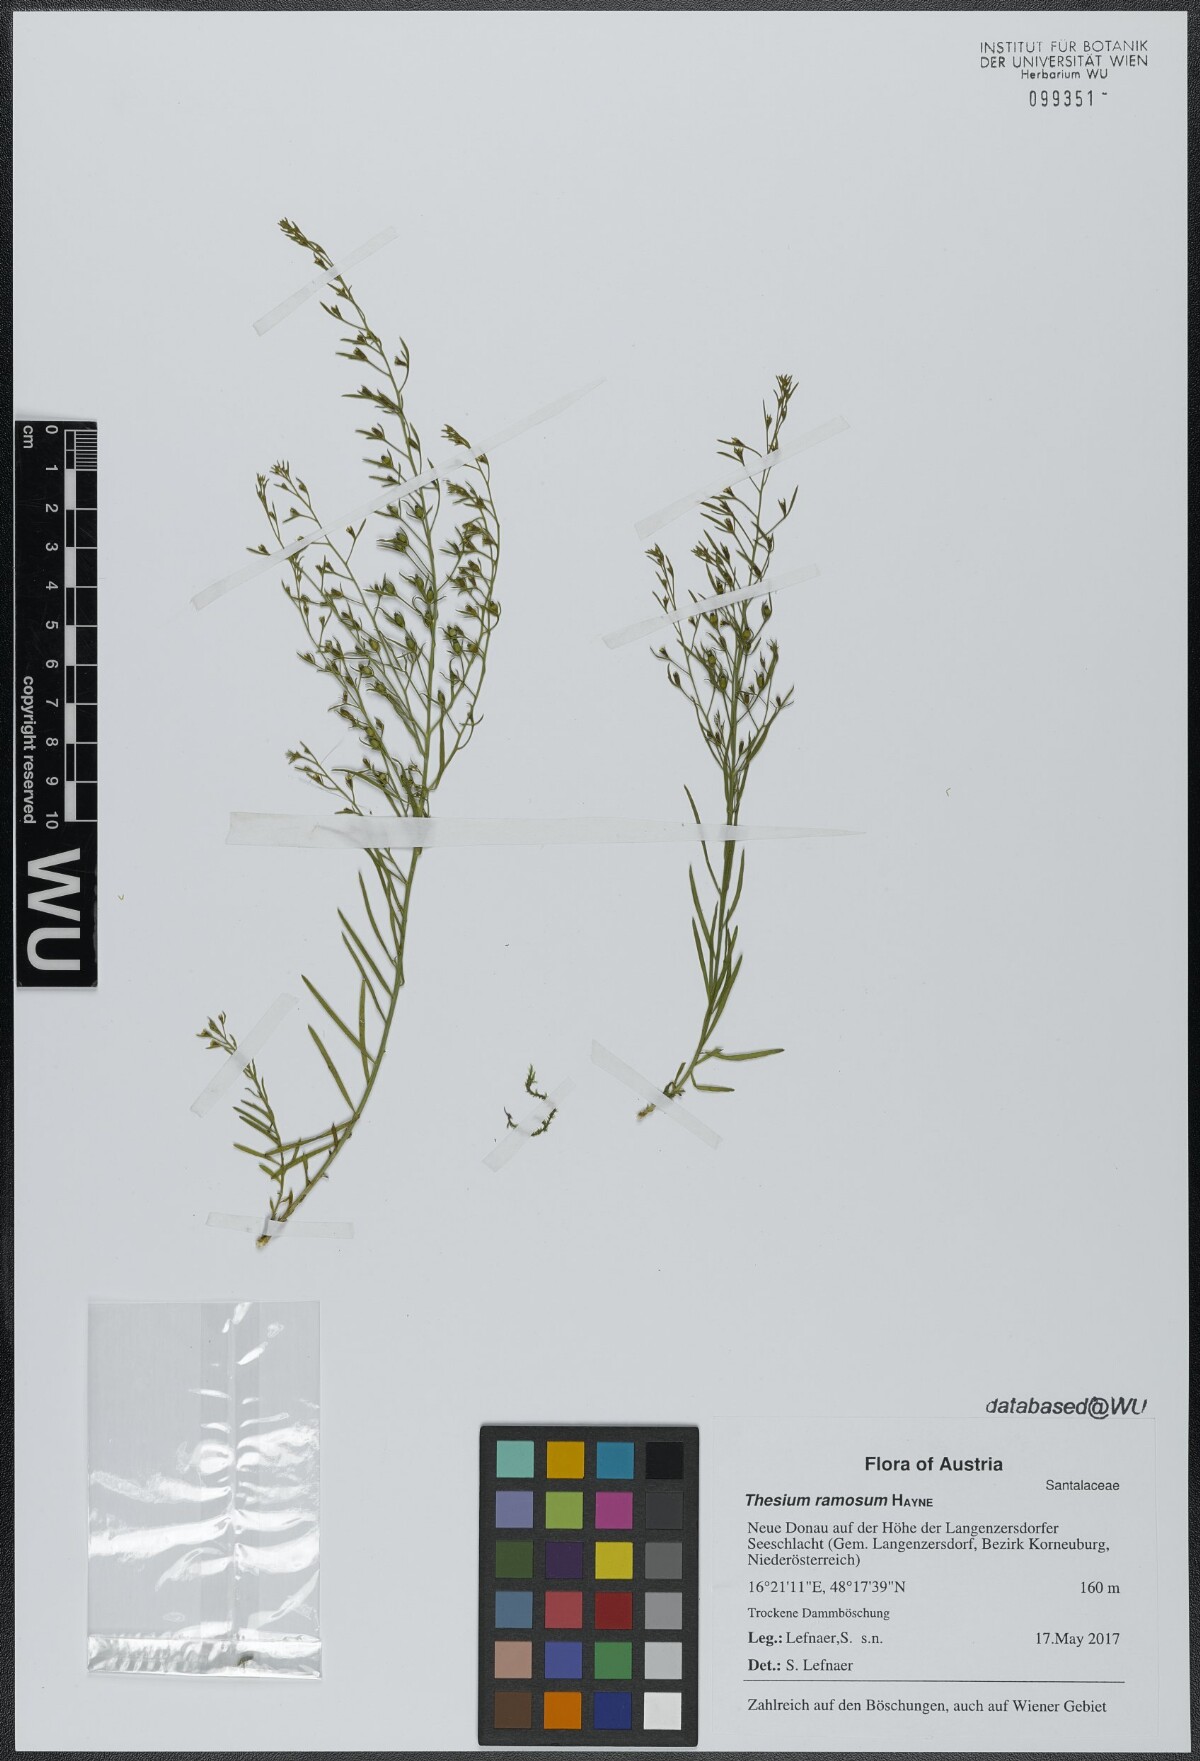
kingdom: Plantae
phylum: Tracheophyta
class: Magnoliopsida
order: Santalales
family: Thesiaceae
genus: Thesium
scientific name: Thesium ramosum
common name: Field thesium
